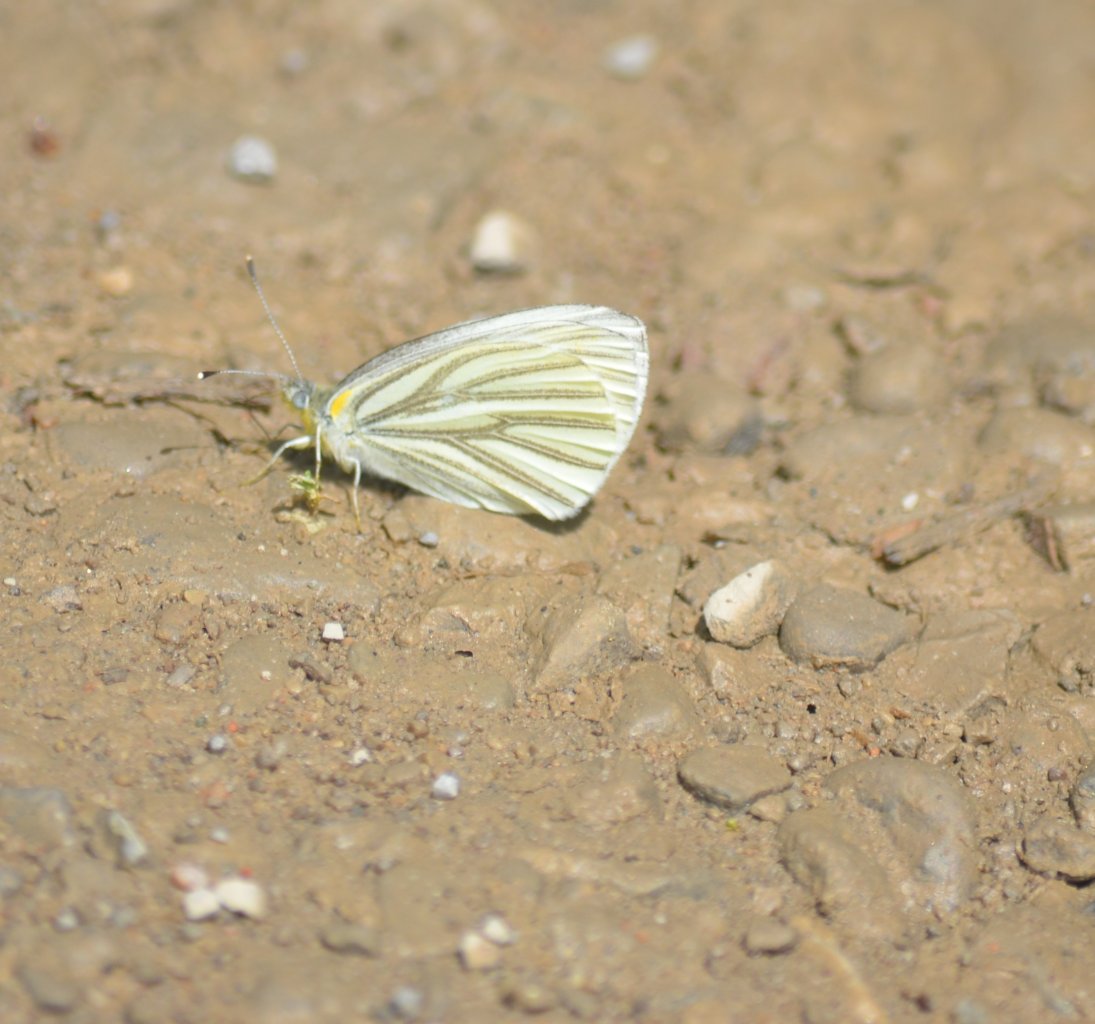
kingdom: Animalia
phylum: Arthropoda
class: Insecta
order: Lepidoptera
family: Pieridae
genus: Pieris
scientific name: Pieris oleracea
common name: Mustard White
